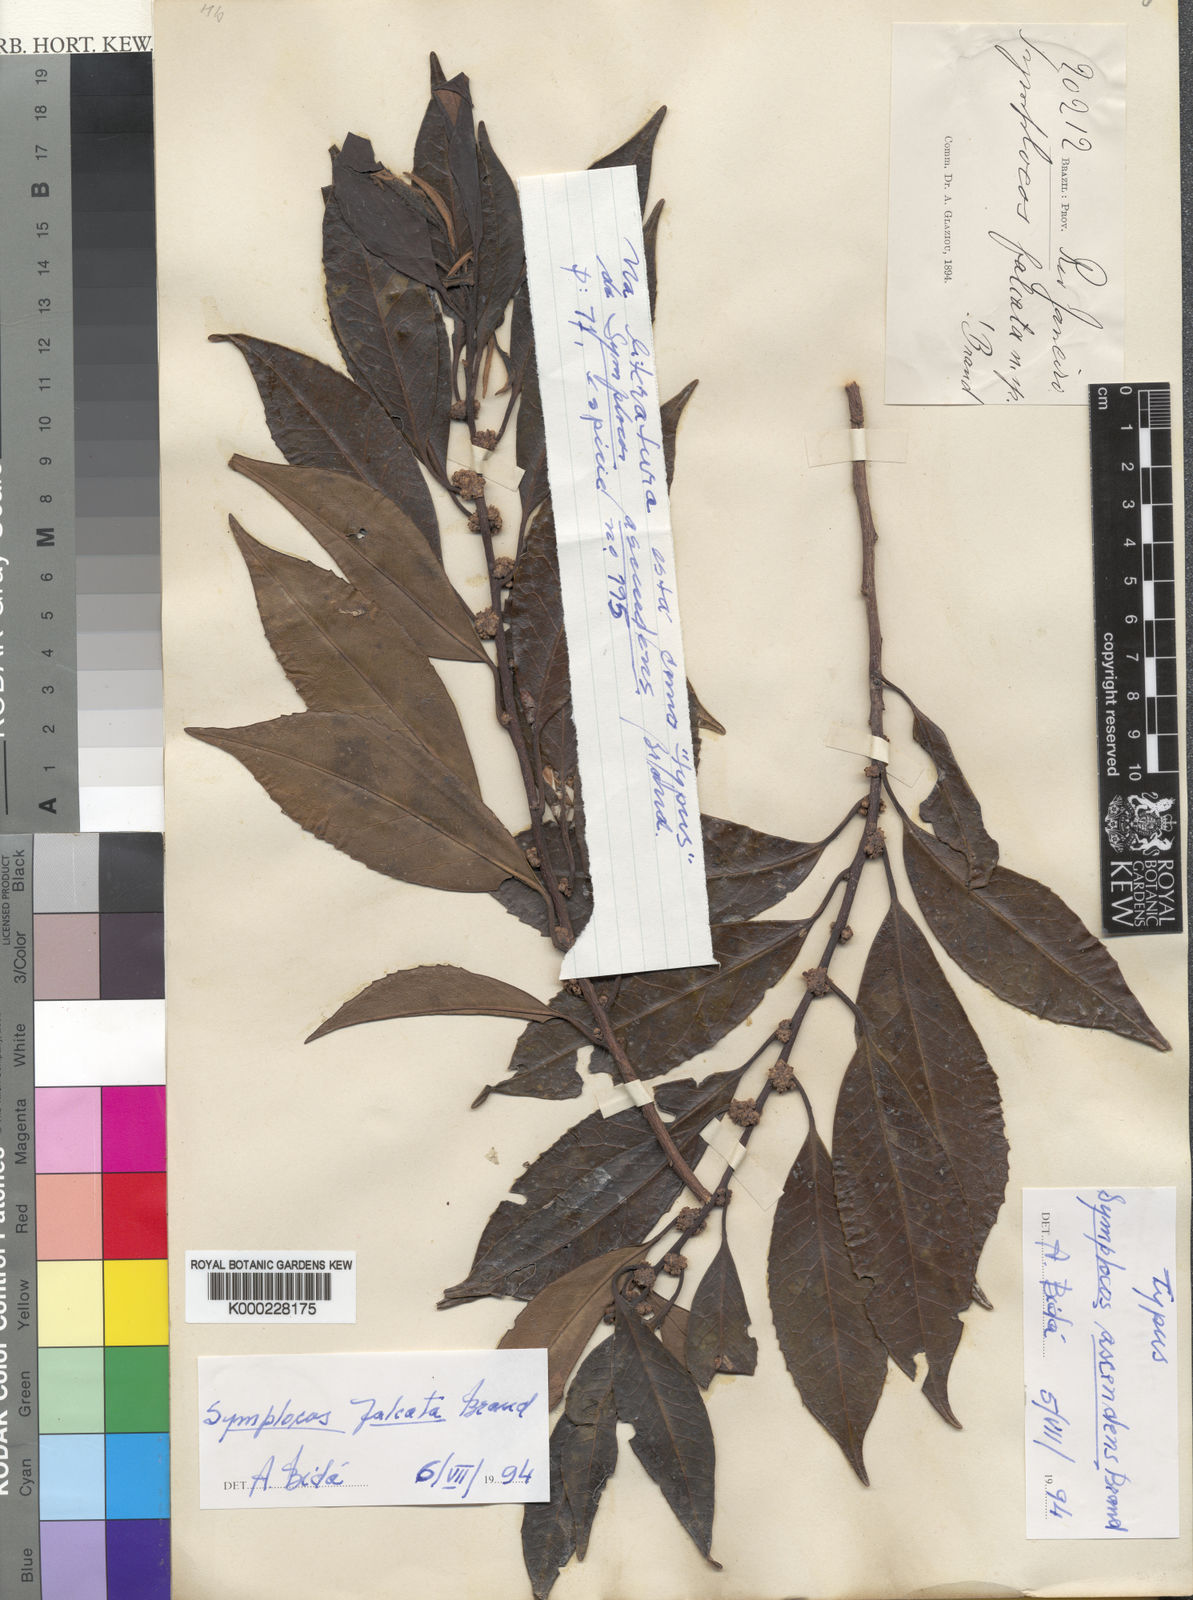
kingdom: Plantae
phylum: Tracheophyta
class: Magnoliopsida
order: Ericales
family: Symplocaceae
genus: Symplocos
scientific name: Symplocos falcata
